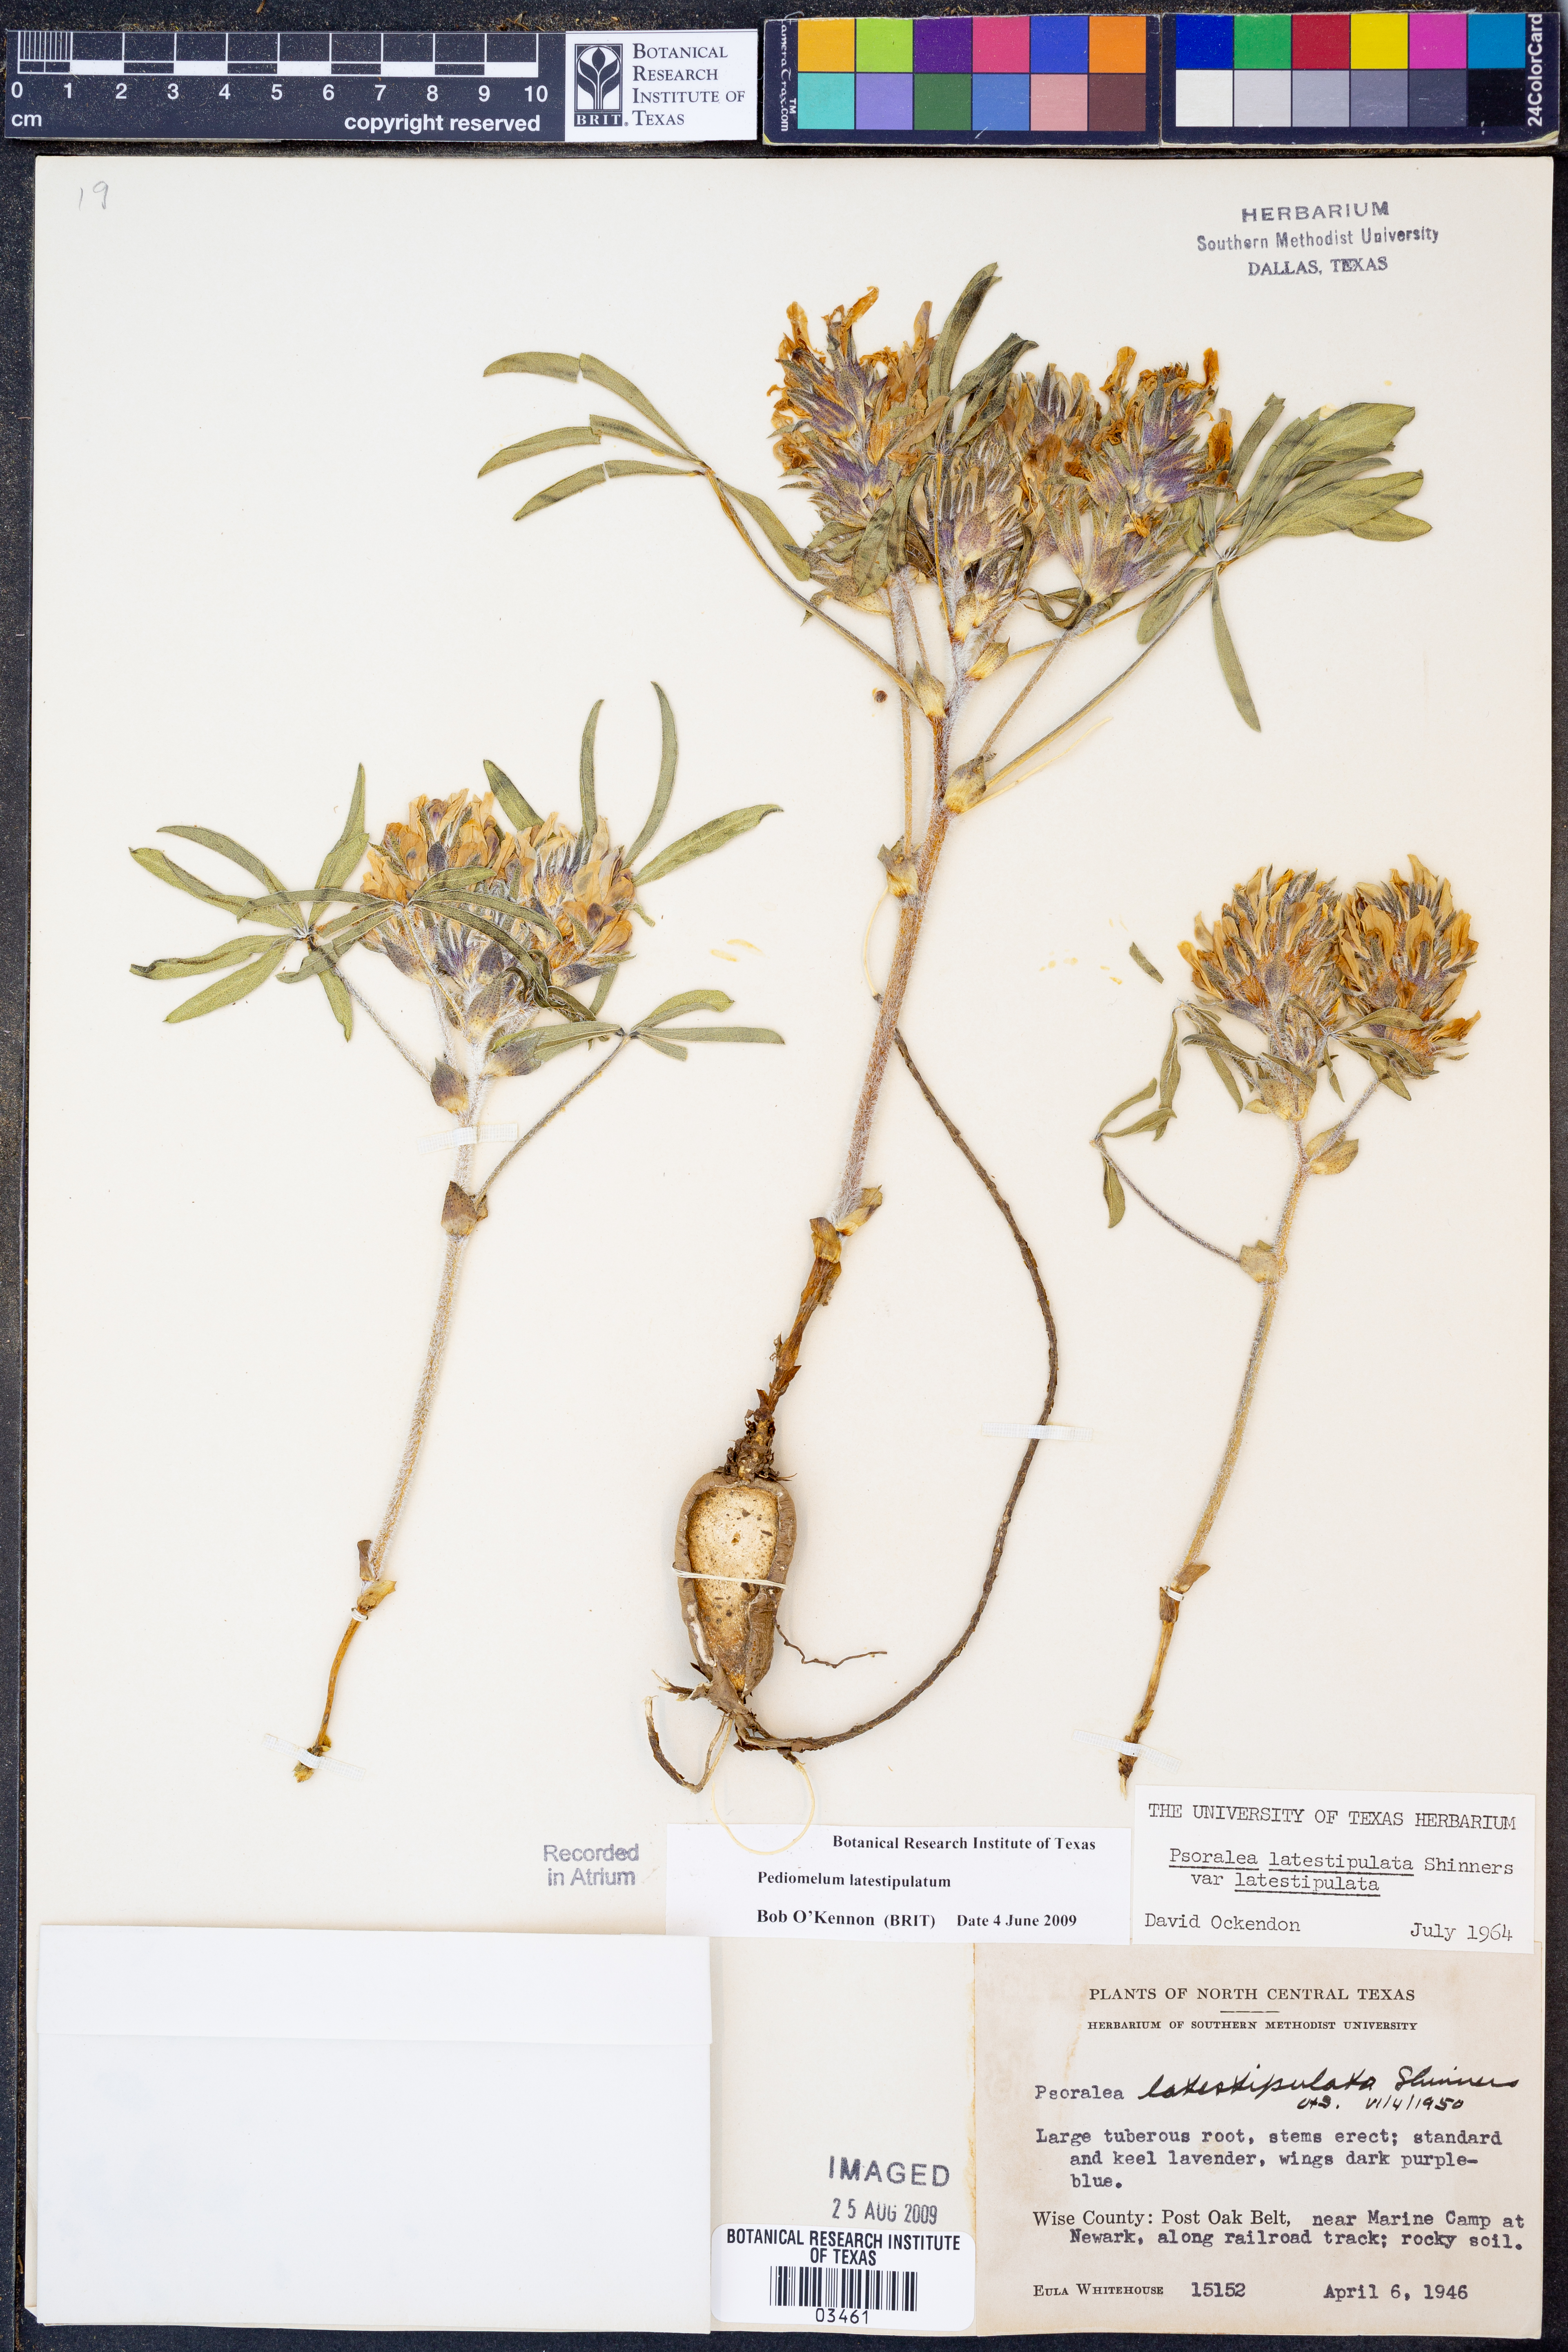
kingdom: Plantae
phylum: Tracheophyta
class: Magnoliopsida
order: Fabales
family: Fabaceae
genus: Pediomelum
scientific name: Pediomelum latestipulatum
